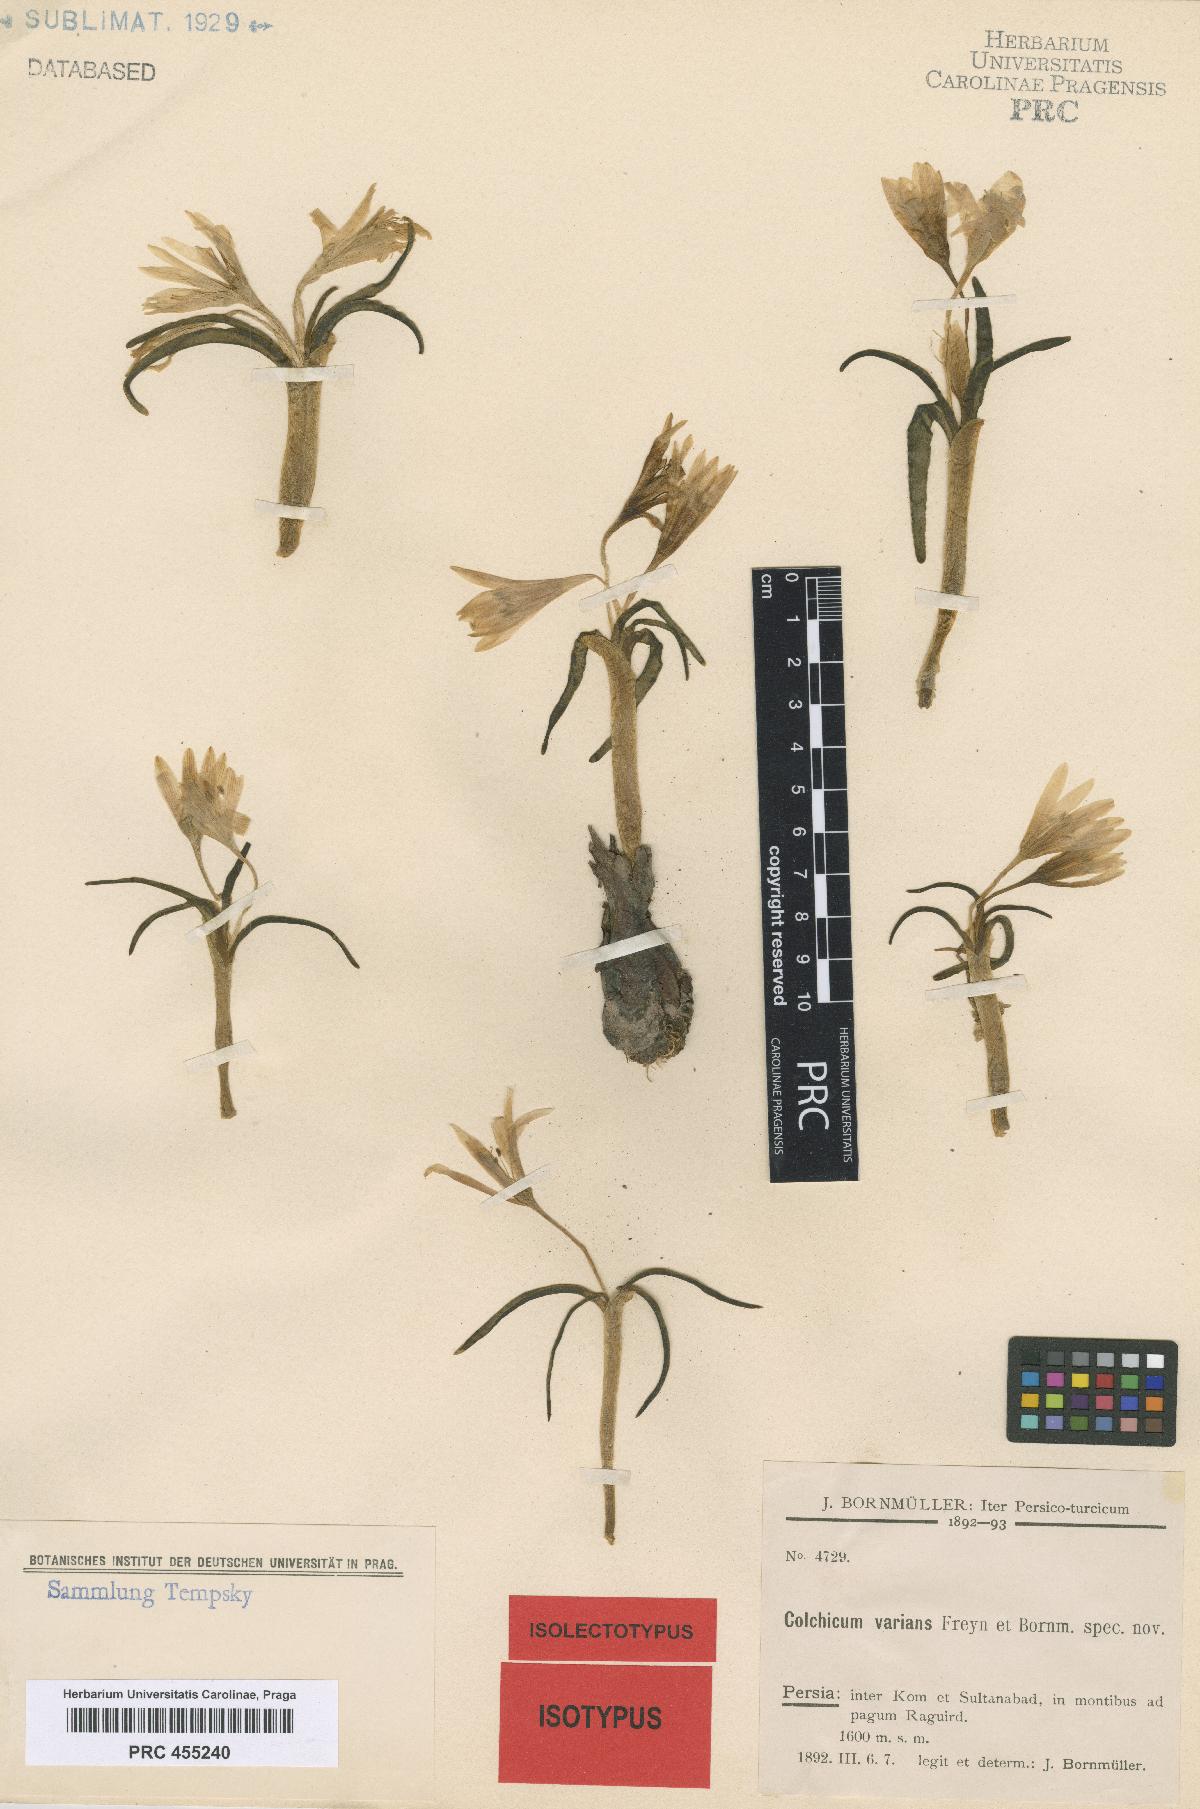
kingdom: Plantae
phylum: Tracheophyta
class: Liliopsida
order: Liliales
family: Colchicaceae
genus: Colchicum
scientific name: Colchicum varians
